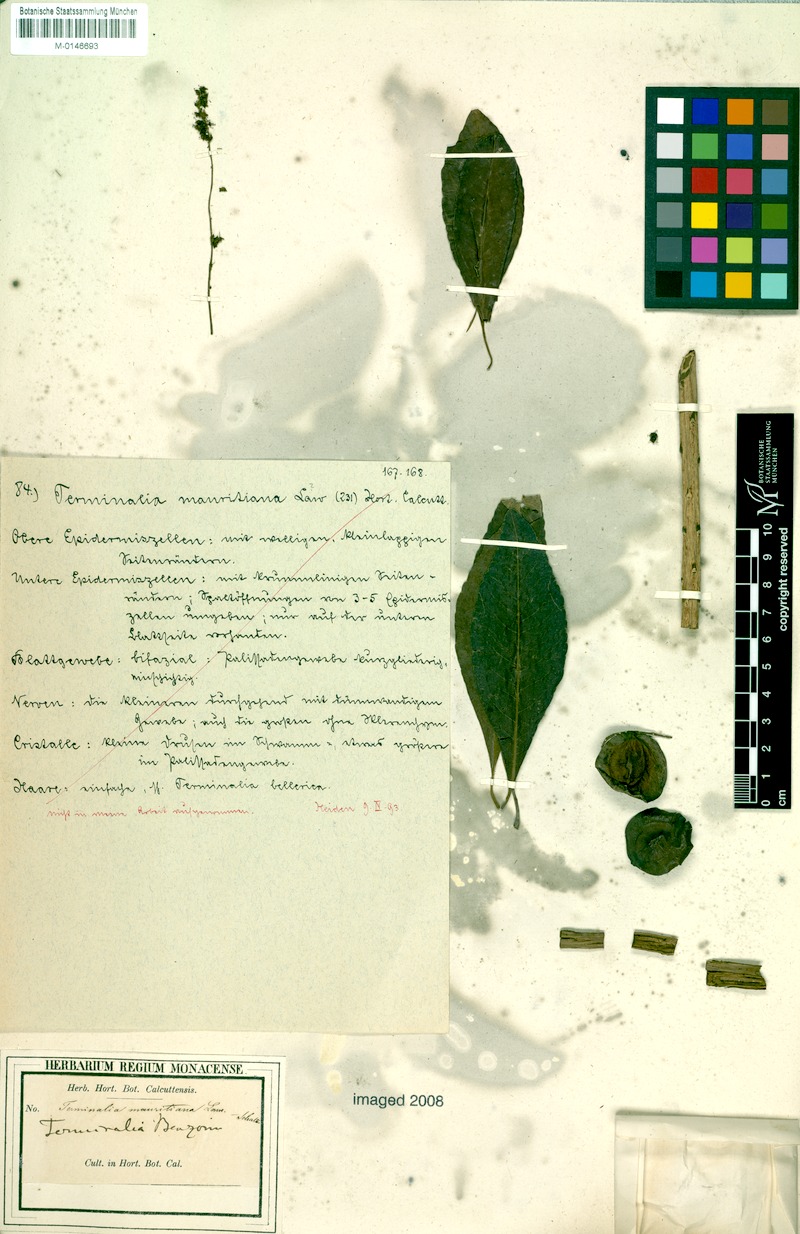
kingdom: Plantae
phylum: Tracheophyta
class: Magnoliopsida
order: Myrtales
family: Combretaceae
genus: Terminalia
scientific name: Terminalia catappa
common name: Tropical almond
